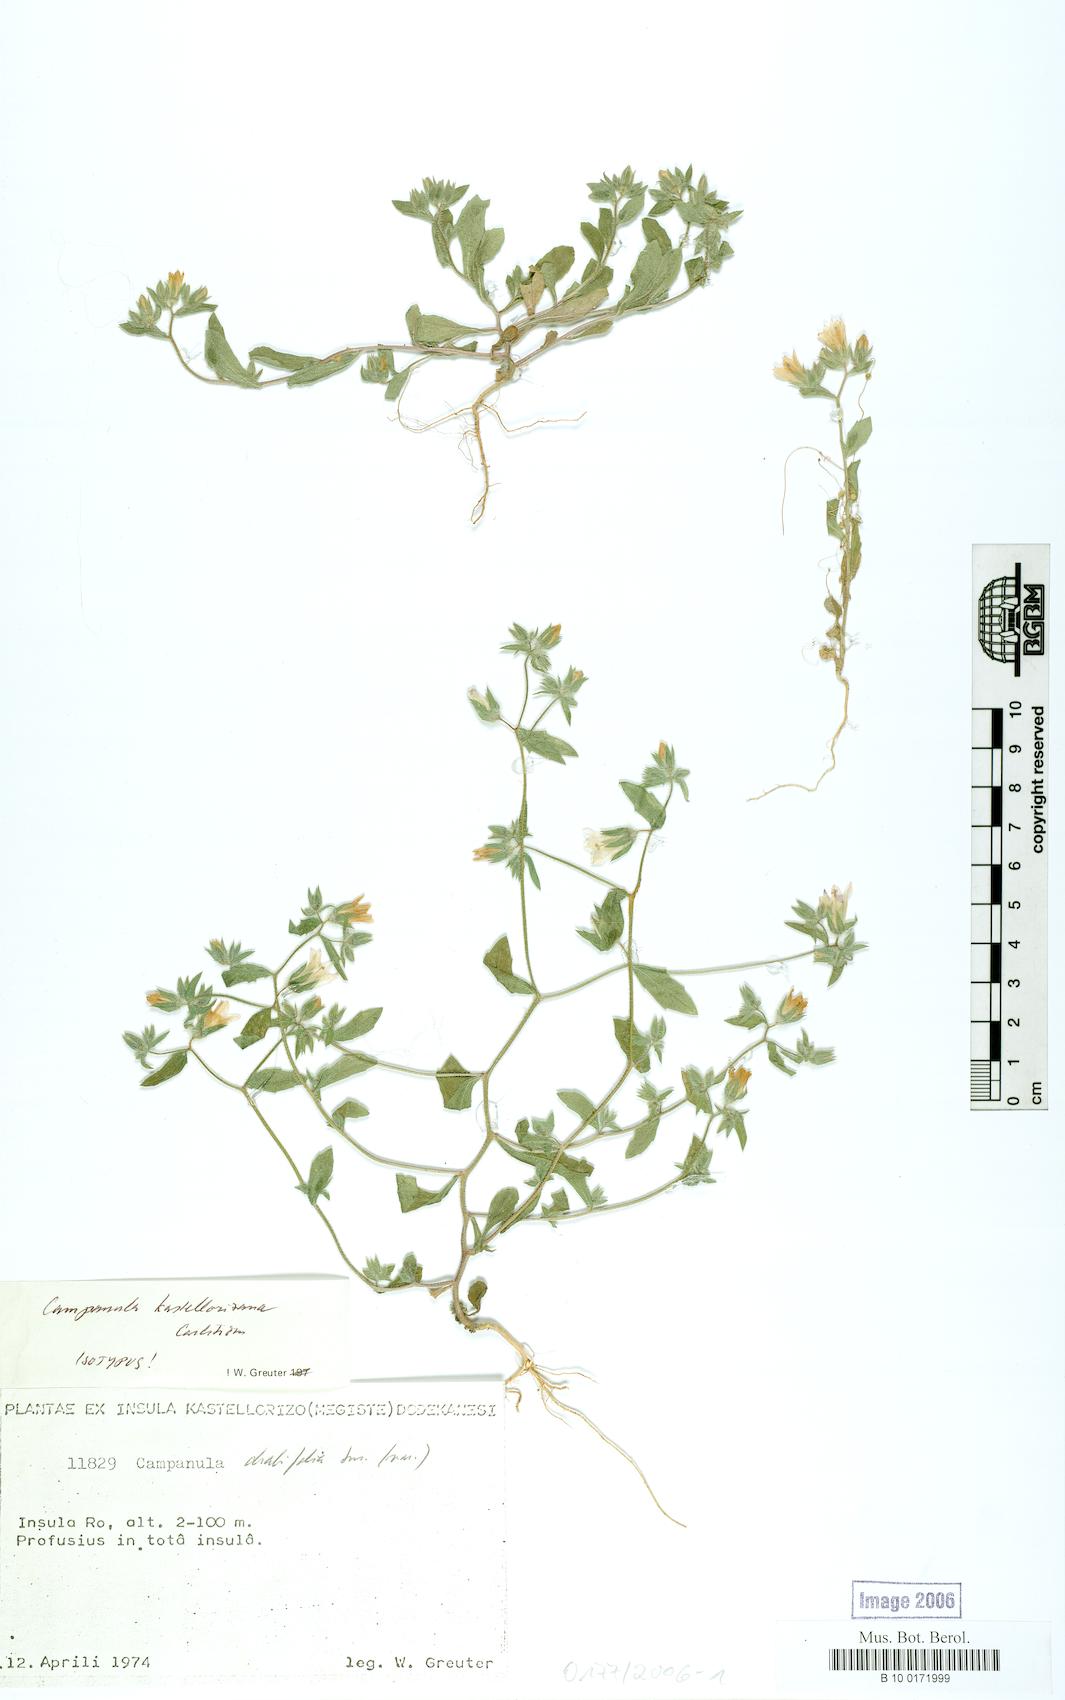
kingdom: Plantae
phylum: Tracheophyta
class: Magnoliopsida
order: Asterales
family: Campanulaceae
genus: Campanula
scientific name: Campanula kastellorizana
